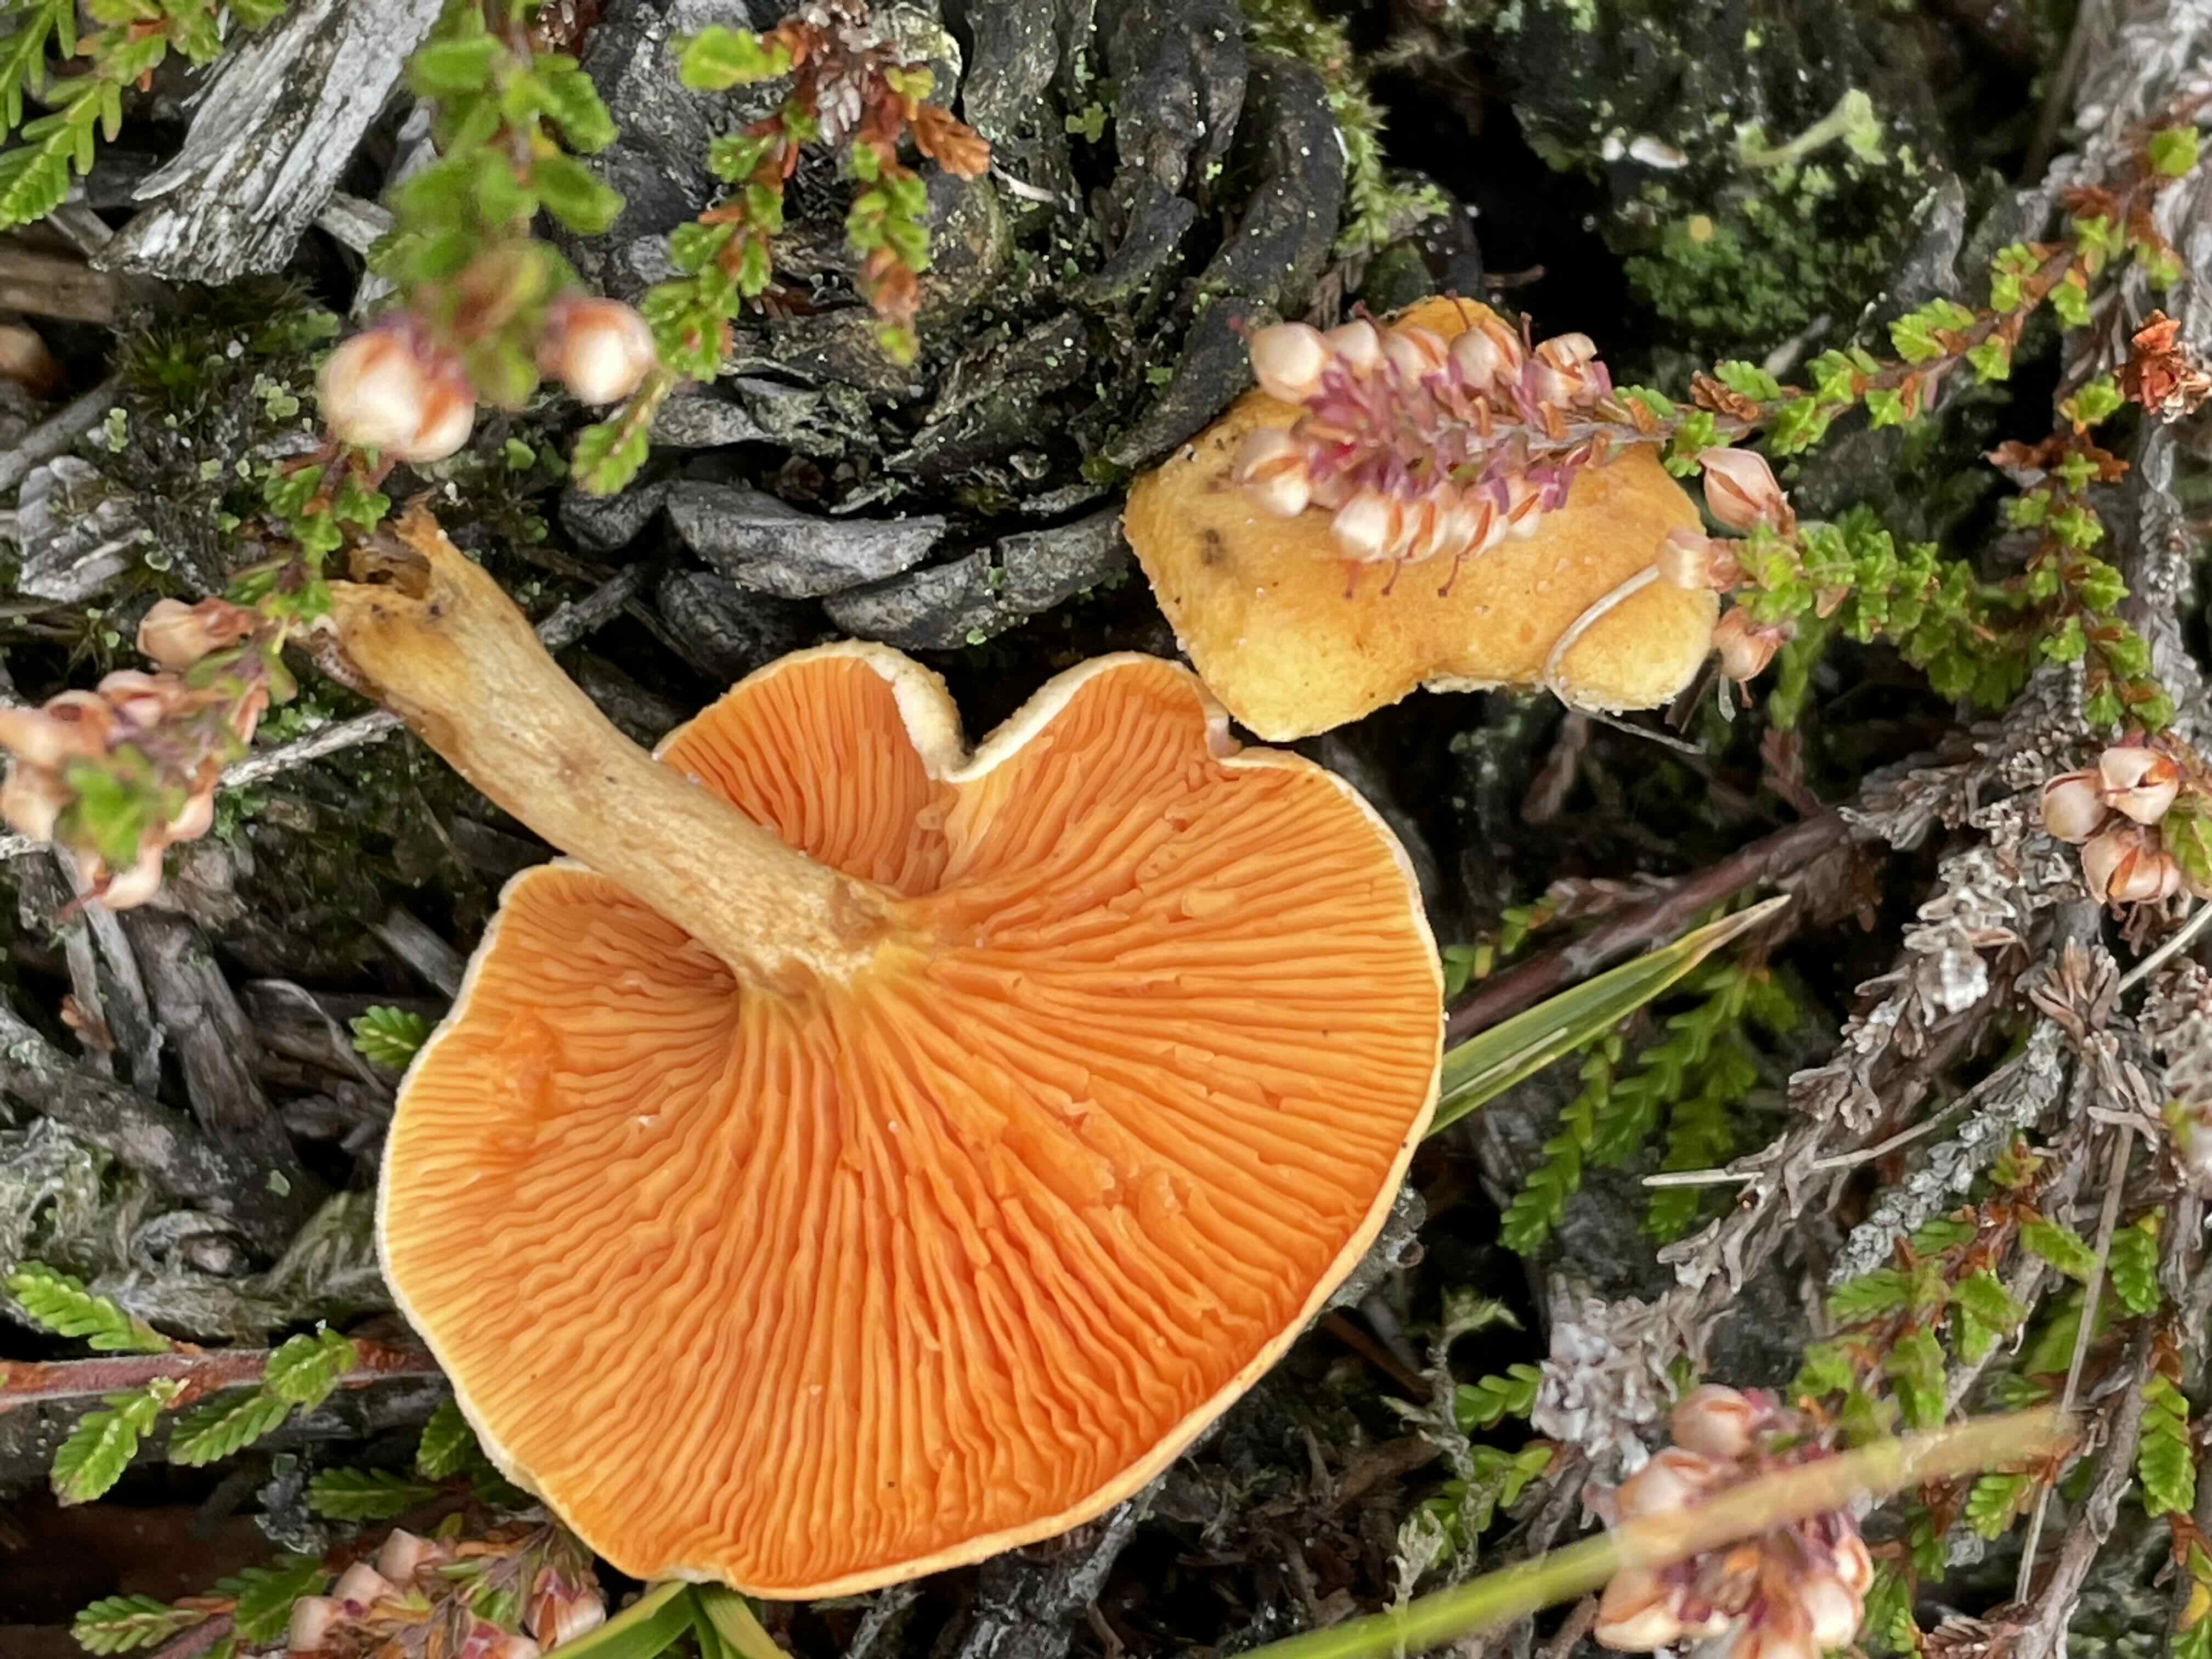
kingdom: Fungi
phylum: Basidiomycota
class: Agaricomycetes
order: Boletales
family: Hygrophoropsidaceae
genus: Hygrophoropsis
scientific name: Hygrophoropsis aurantiaca
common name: almindelig orangekantarel
